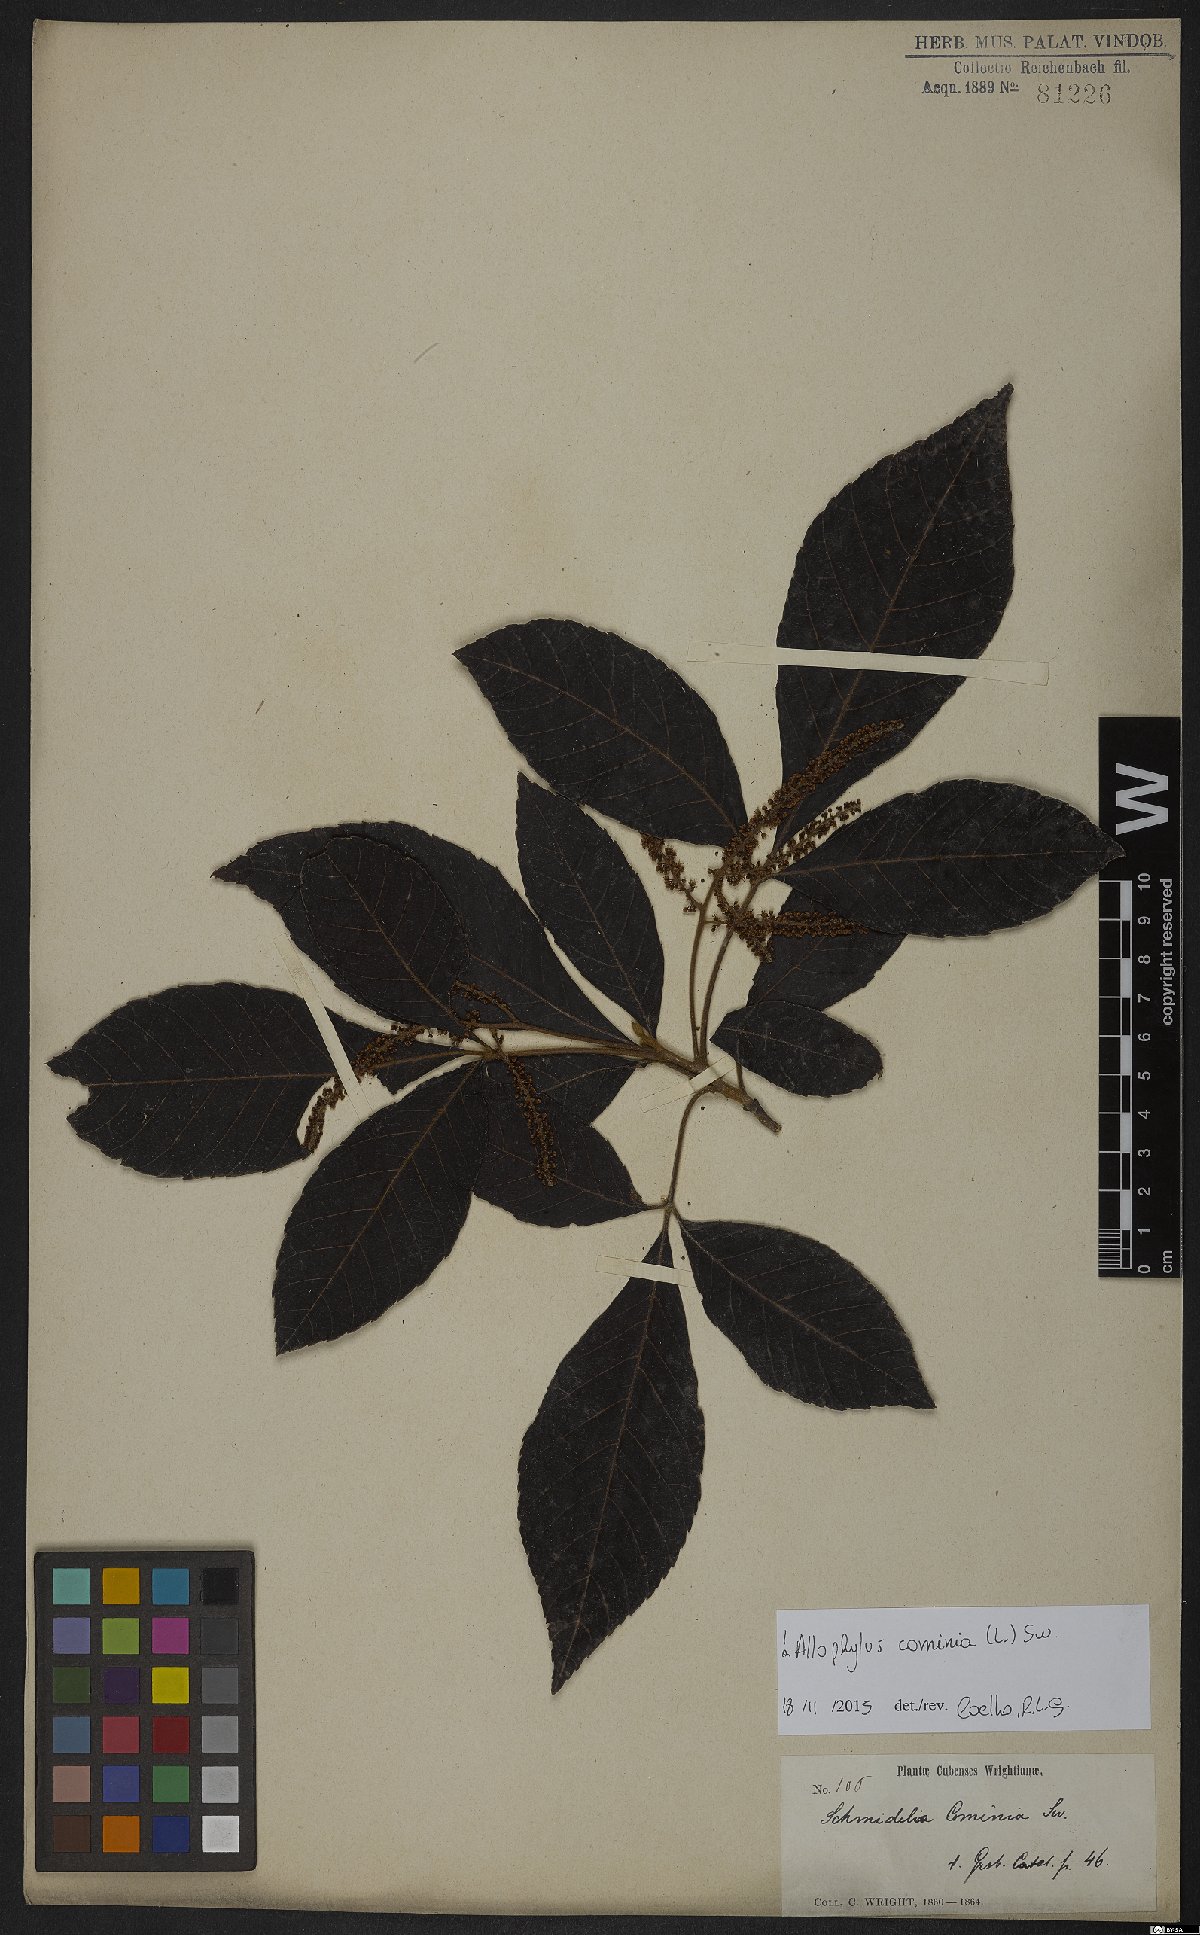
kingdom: Plantae
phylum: Tracheophyta
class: Magnoliopsida
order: Sapindales
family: Sapindaceae
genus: Allophylus
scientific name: Allophylus cominia
